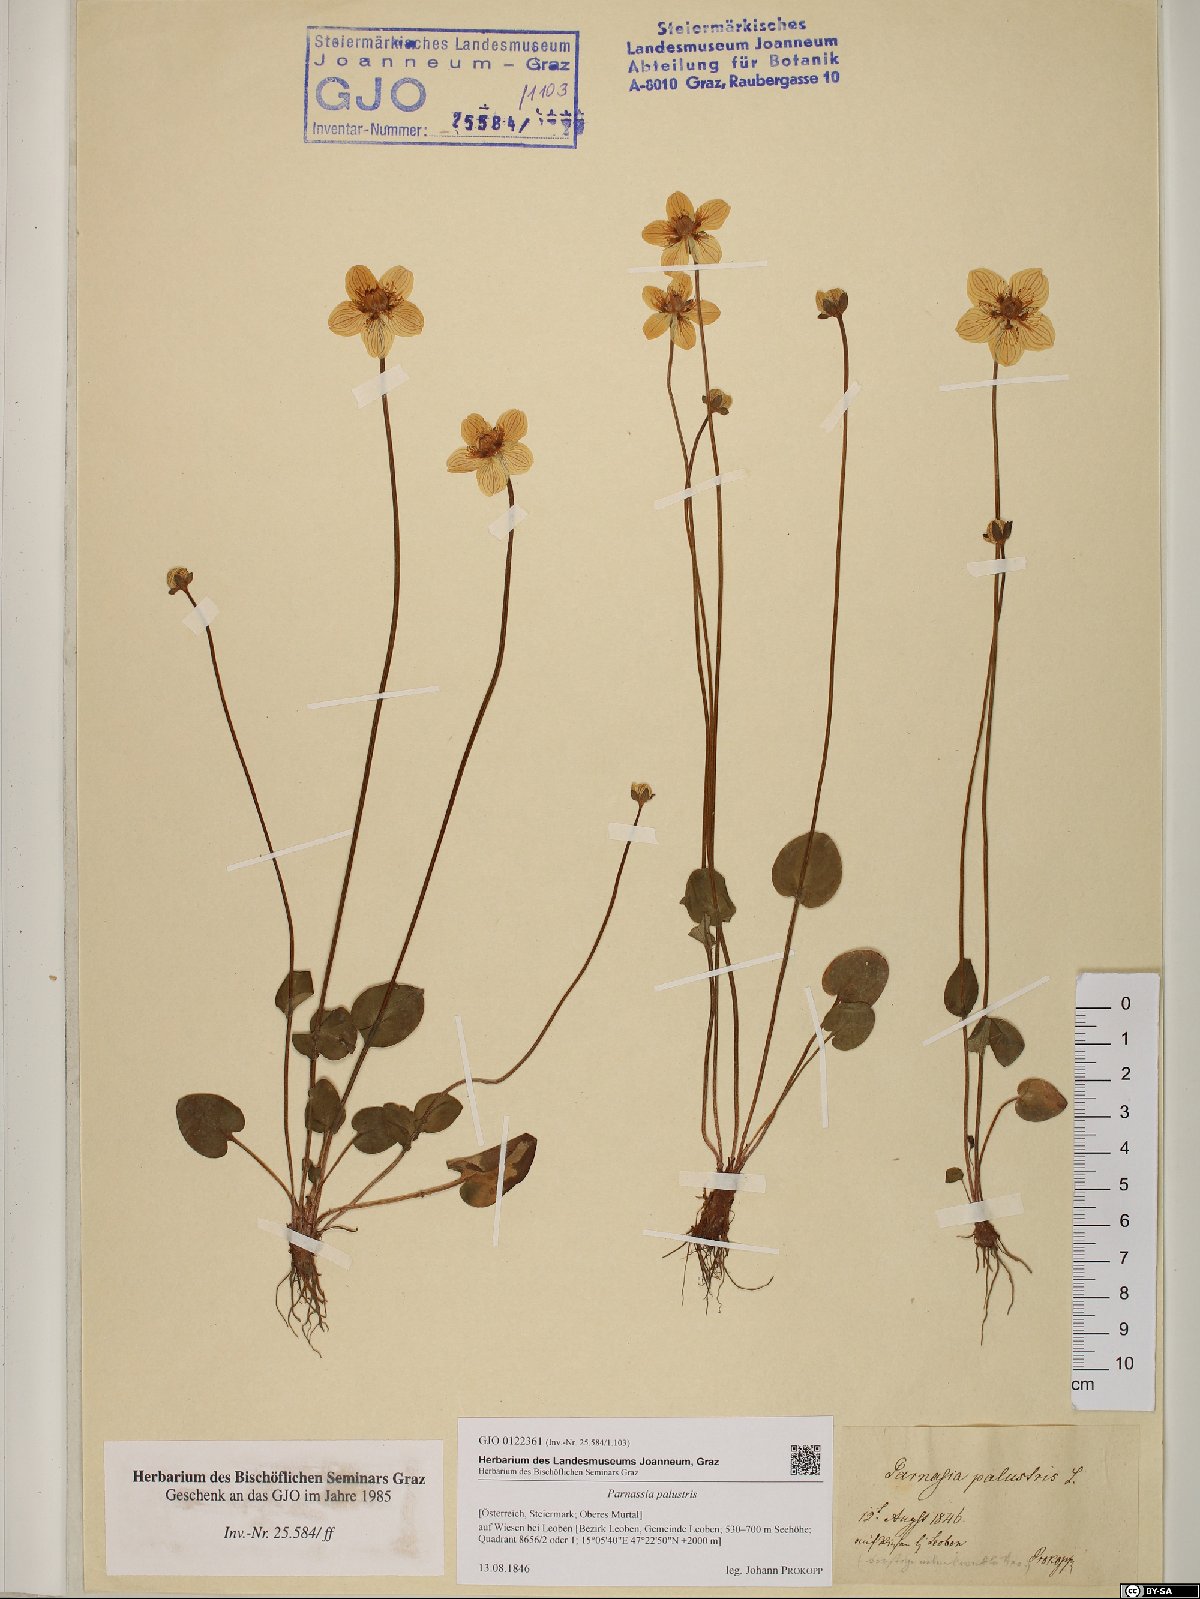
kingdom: Plantae
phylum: Tracheophyta
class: Magnoliopsida
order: Celastrales
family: Parnassiaceae
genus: Parnassia
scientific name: Parnassia palustris
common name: Grass-of-parnassus
